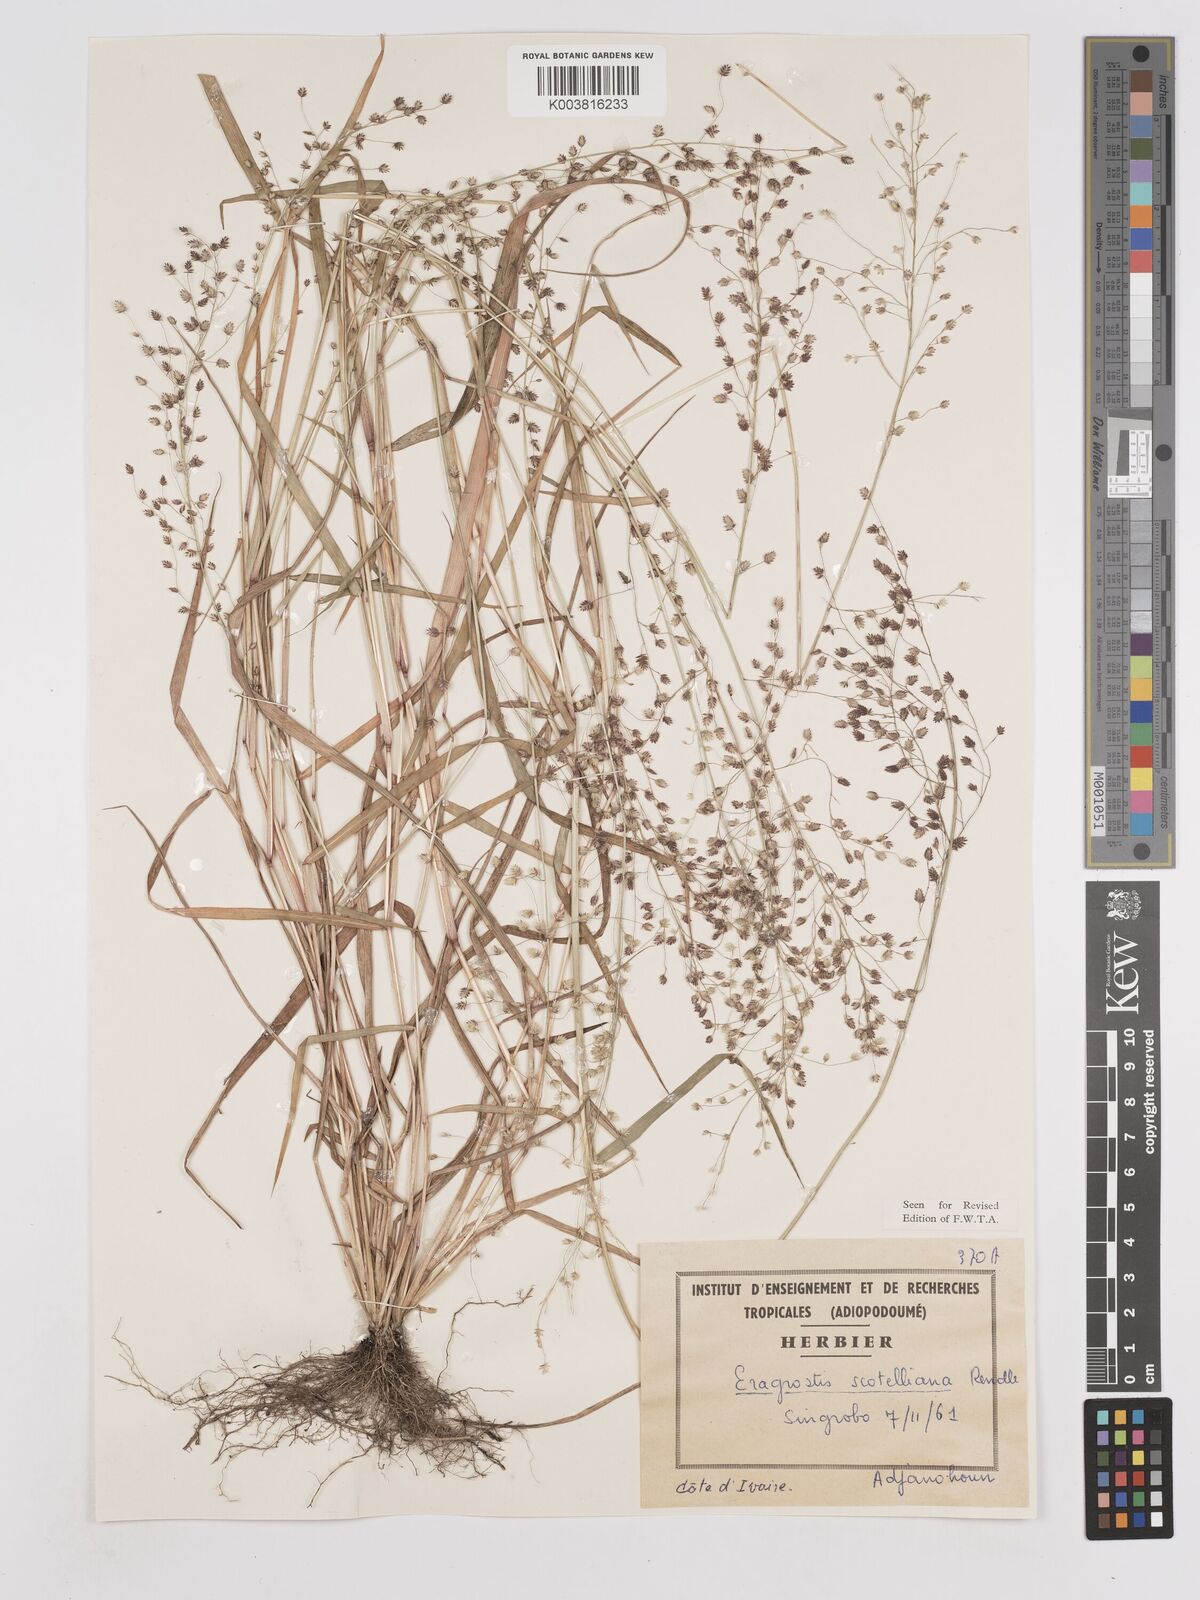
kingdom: Plantae
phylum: Tracheophyta
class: Liliopsida
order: Poales
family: Poaceae
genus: Eragrostis
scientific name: Eragrostis scotelliana
